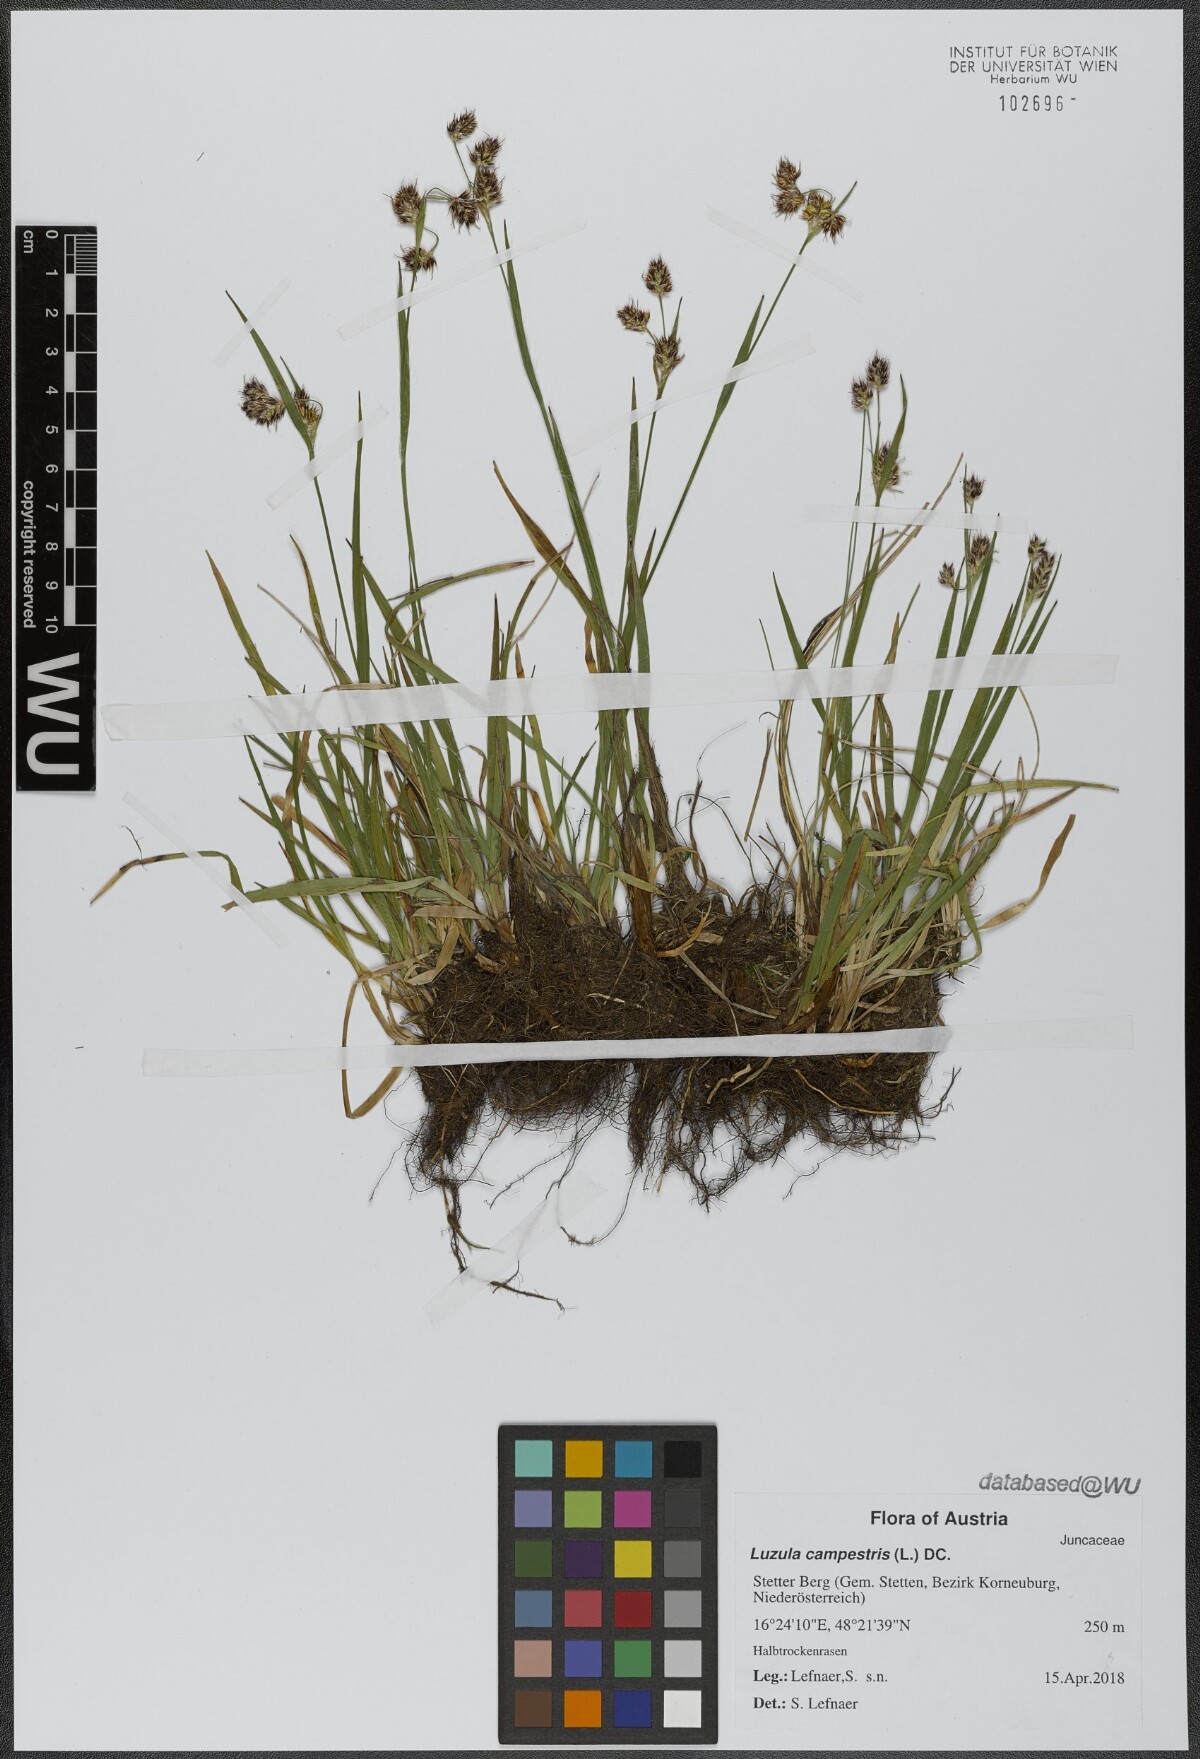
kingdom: Plantae
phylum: Tracheophyta
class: Liliopsida
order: Poales
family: Juncaceae
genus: Luzula
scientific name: Luzula campestris
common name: Field wood-rush
